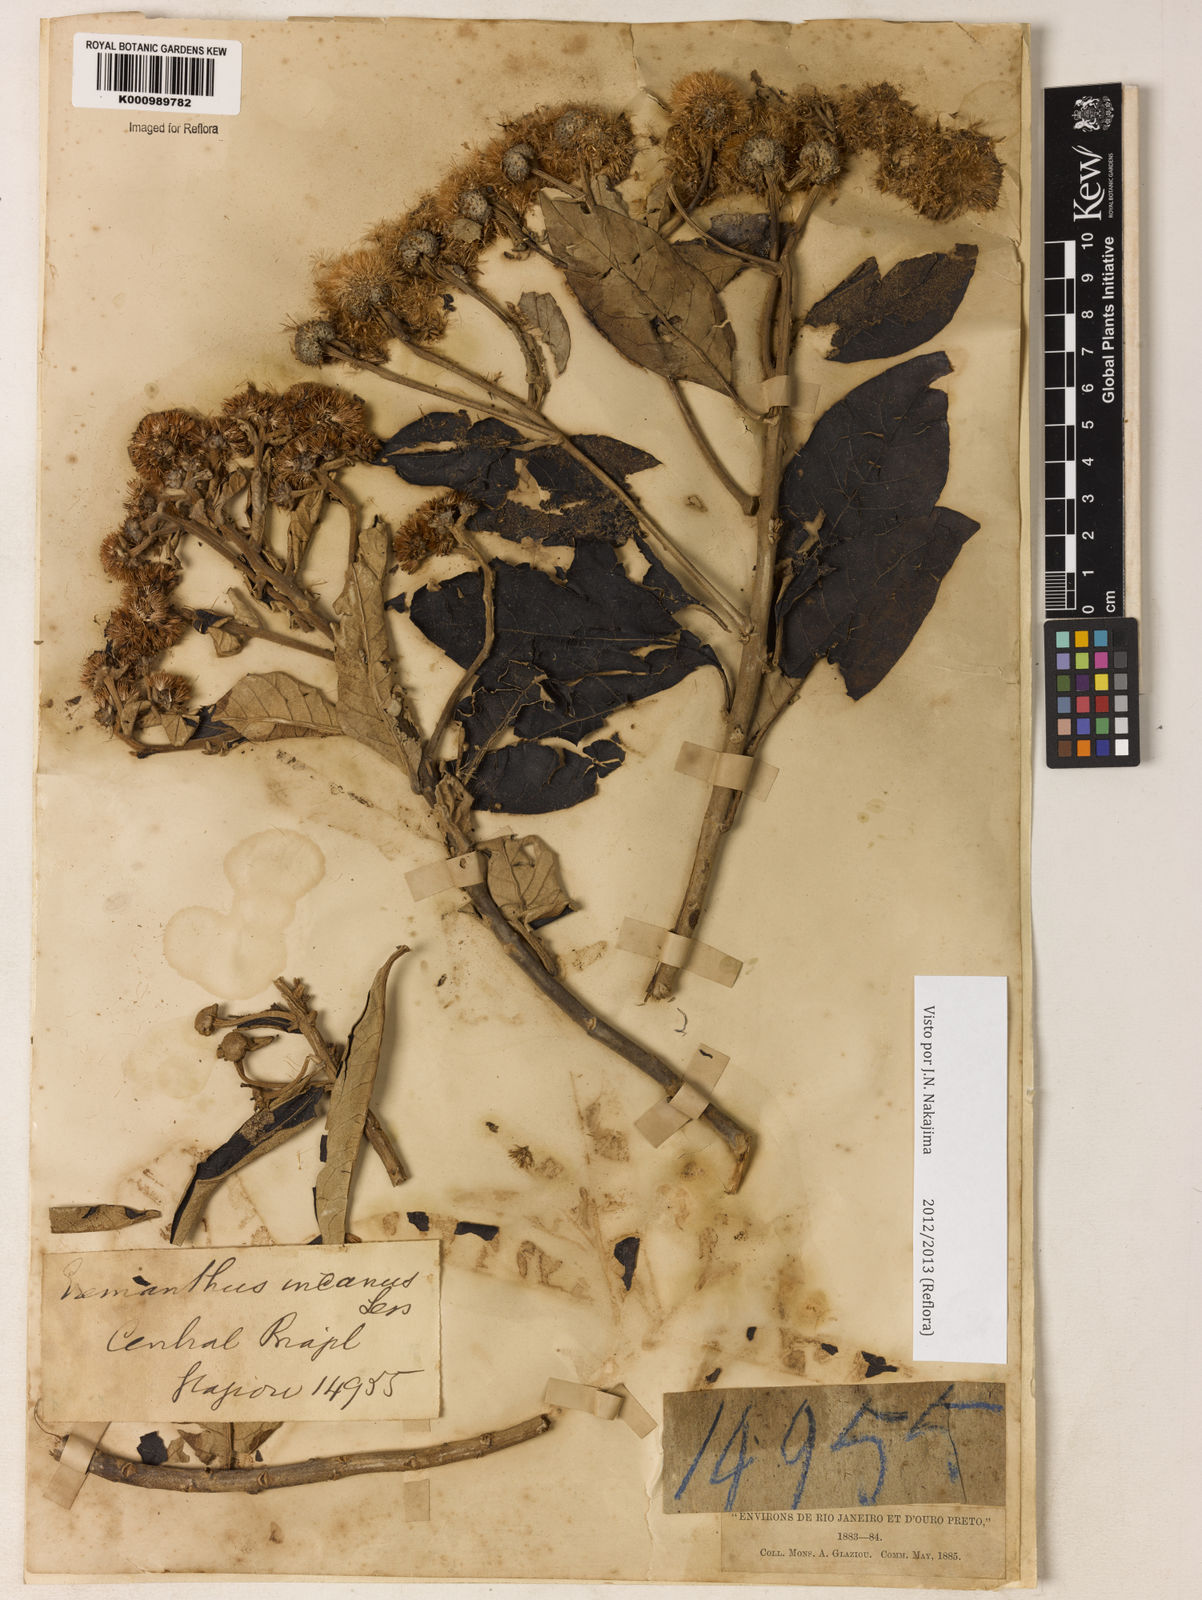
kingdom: Plantae
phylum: Tracheophyta
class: Magnoliopsida
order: Asterales
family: Asteraceae
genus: Eremanthus
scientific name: Eremanthus incanus
